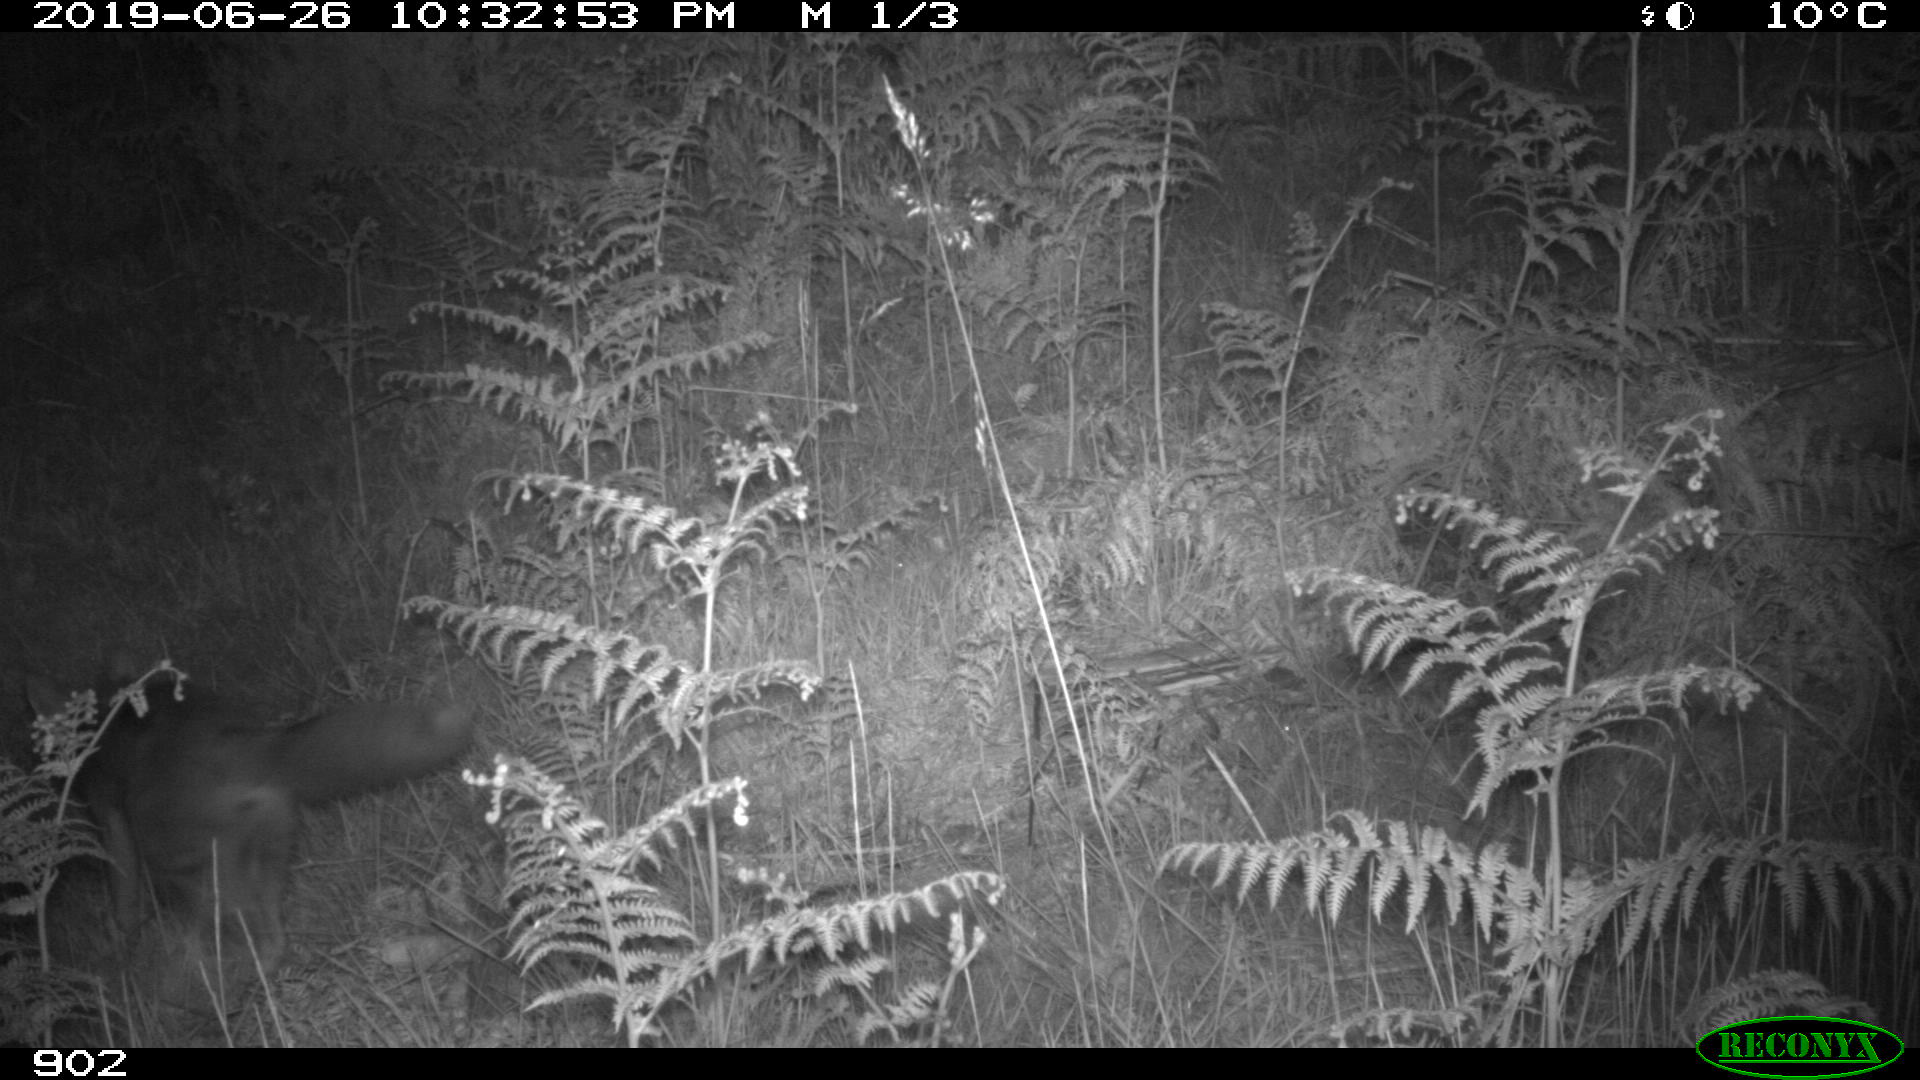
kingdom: Animalia
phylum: Chordata
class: Mammalia
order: Carnivora
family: Canidae
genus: Vulpes
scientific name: Vulpes vulpes
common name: Red fox
